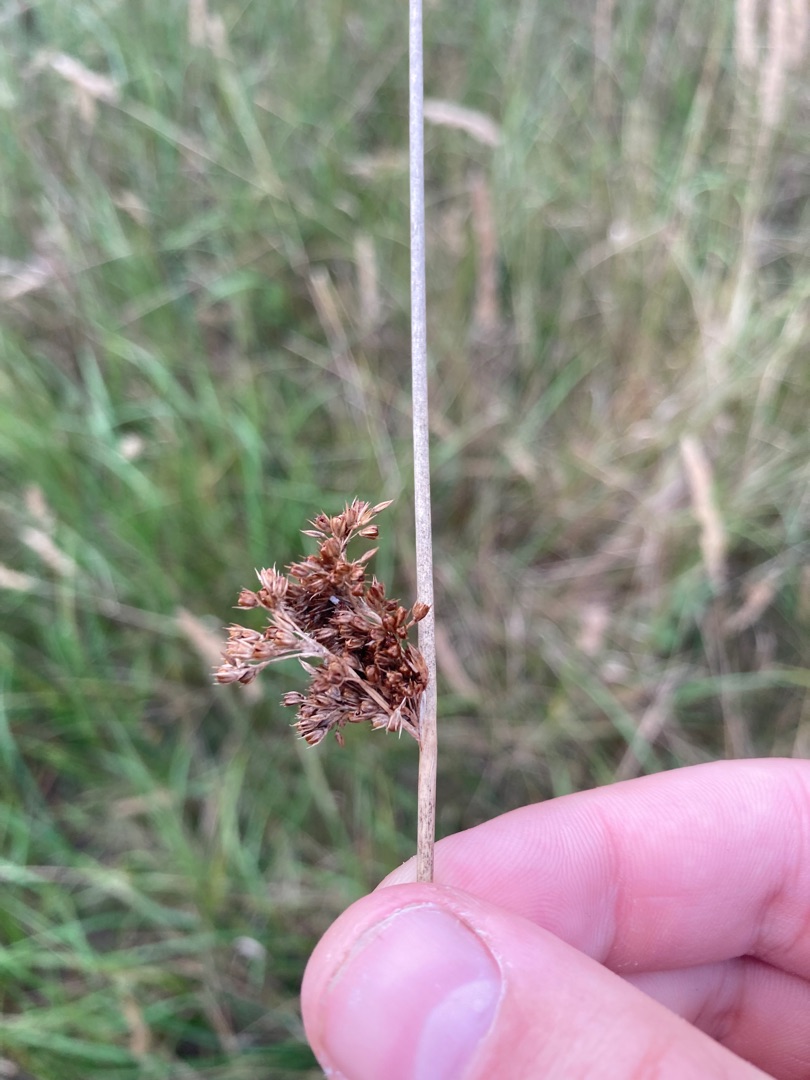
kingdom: Plantae
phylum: Tracheophyta
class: Liliopsida
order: Poales
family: Juncaceae
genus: Juncus
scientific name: Juncus effusus
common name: Lyse-siv
